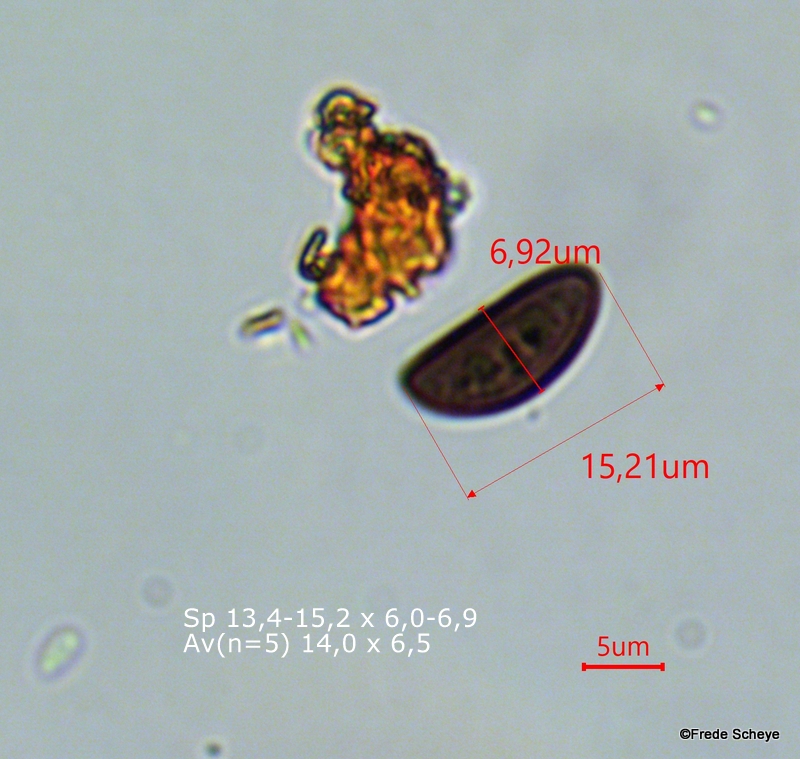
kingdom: Fungi
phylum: Ascomycota
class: Sordariomycetes
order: Xylariales
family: Hypoxylaceae
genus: Hypoxylon
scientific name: Hypoxylon fragiforme
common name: kuljordbær
